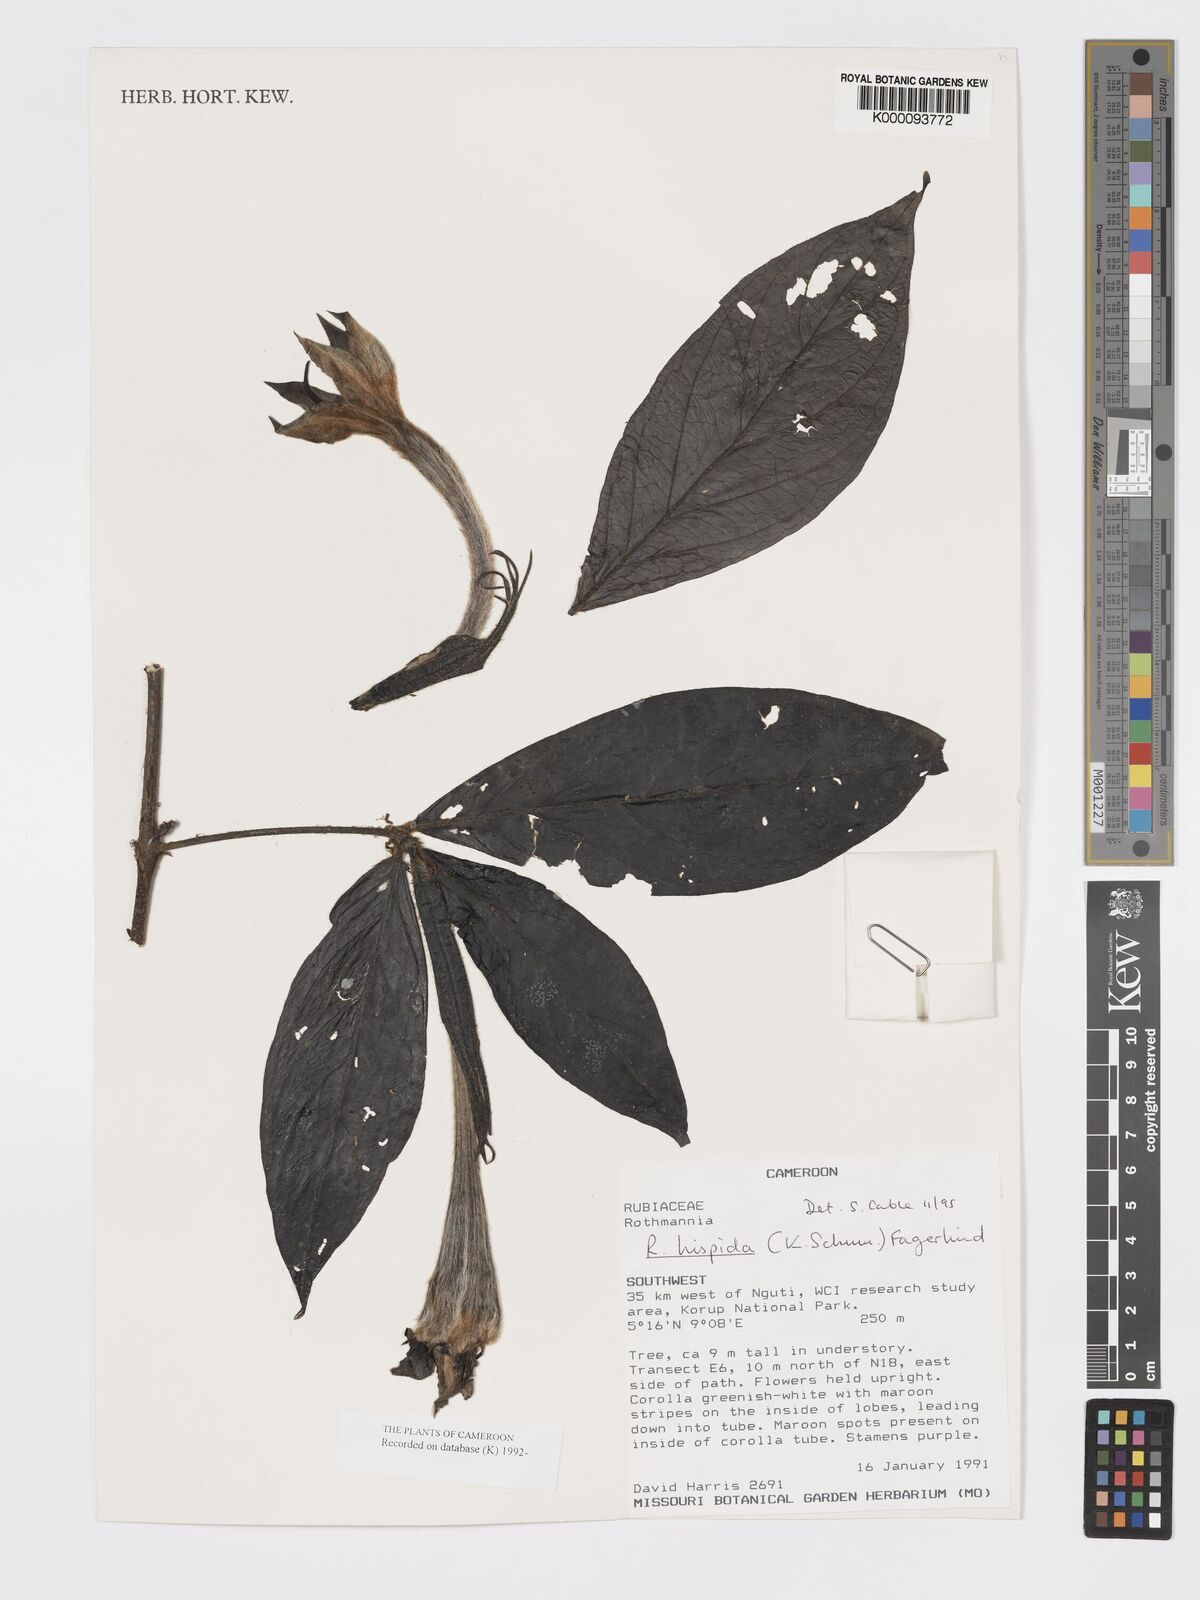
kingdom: Plantae
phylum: Tracheophyta
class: Magnoliopsida
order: Gentianales
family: Rubiaceae
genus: Rothmannia
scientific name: Rothmannia hispida
